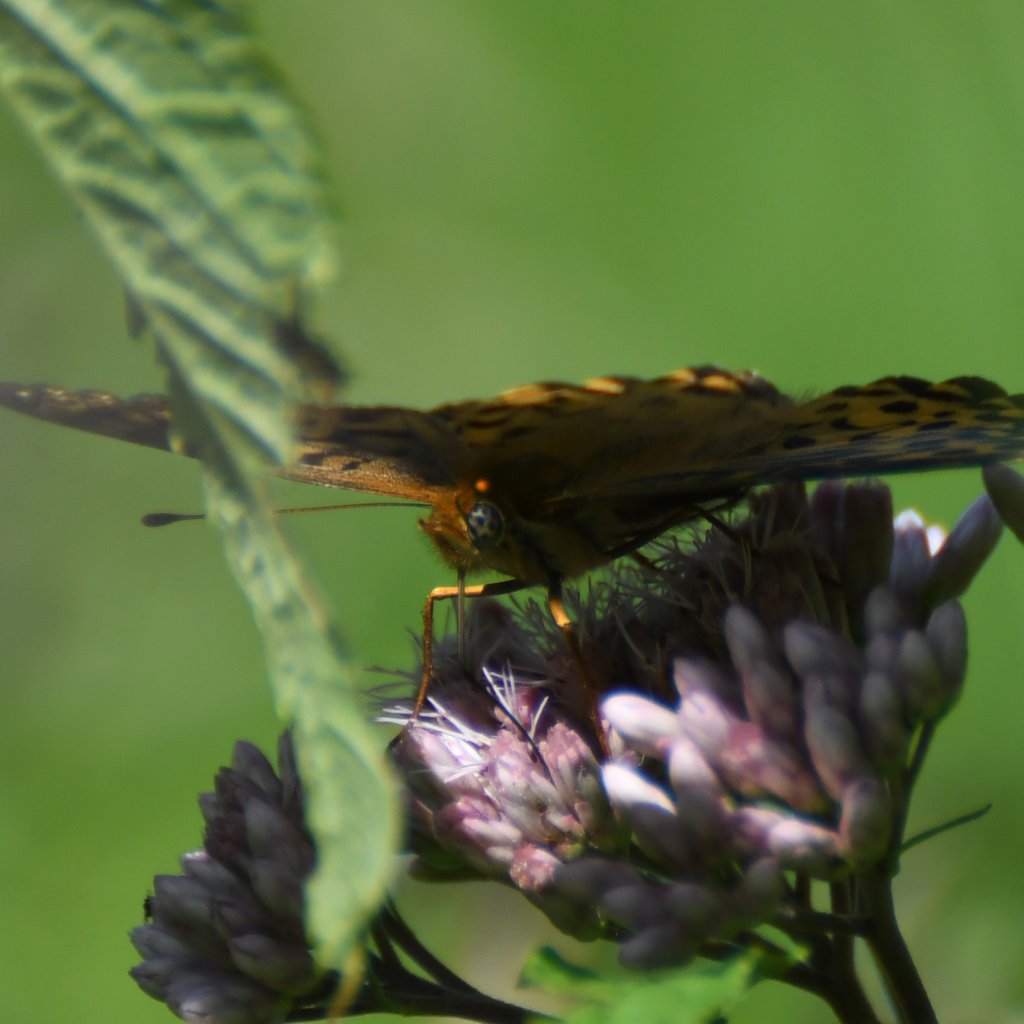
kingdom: Animalia
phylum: Arthropoda
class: Insecta
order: Lepidoptera
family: Nymphalidae
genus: Speyeria
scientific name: Speyeria atlantis
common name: Atlantis Fritillary
